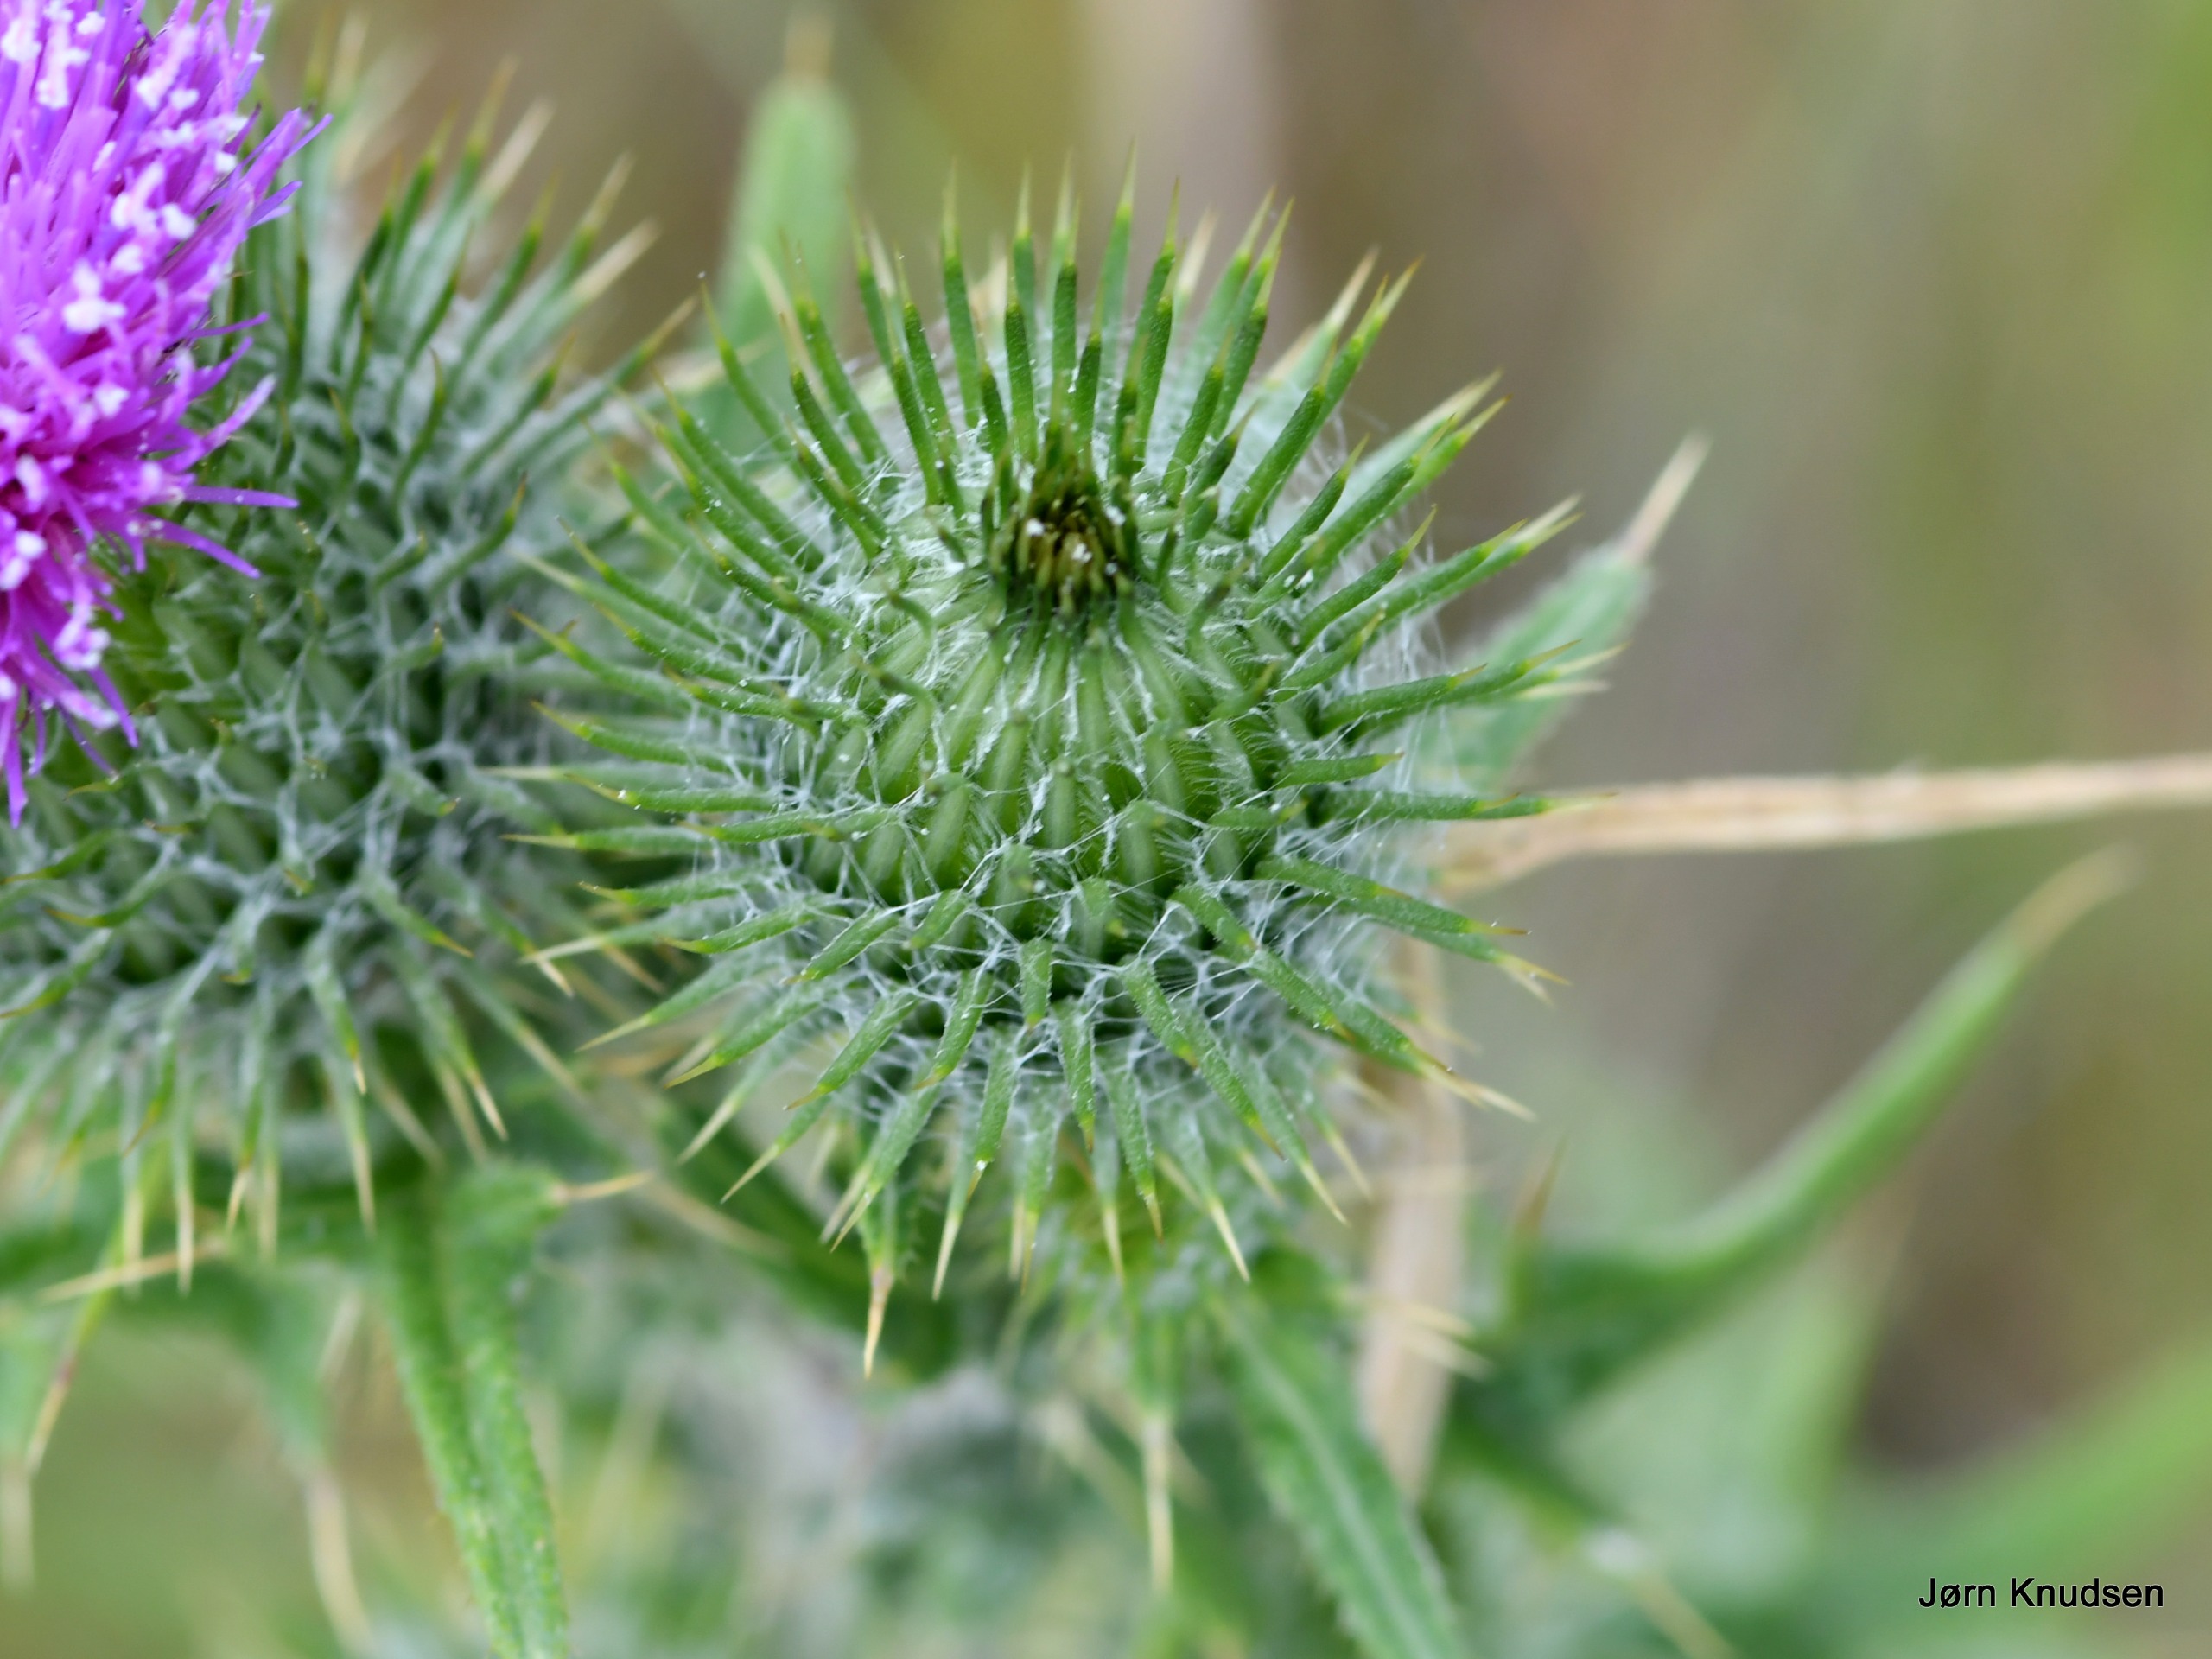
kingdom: Plantae
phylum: Tracheophyta
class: Magnoliopsida
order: Asterales
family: Asteraceae
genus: Cirsium
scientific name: Cirsium vulgare
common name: Horse-tidsel
